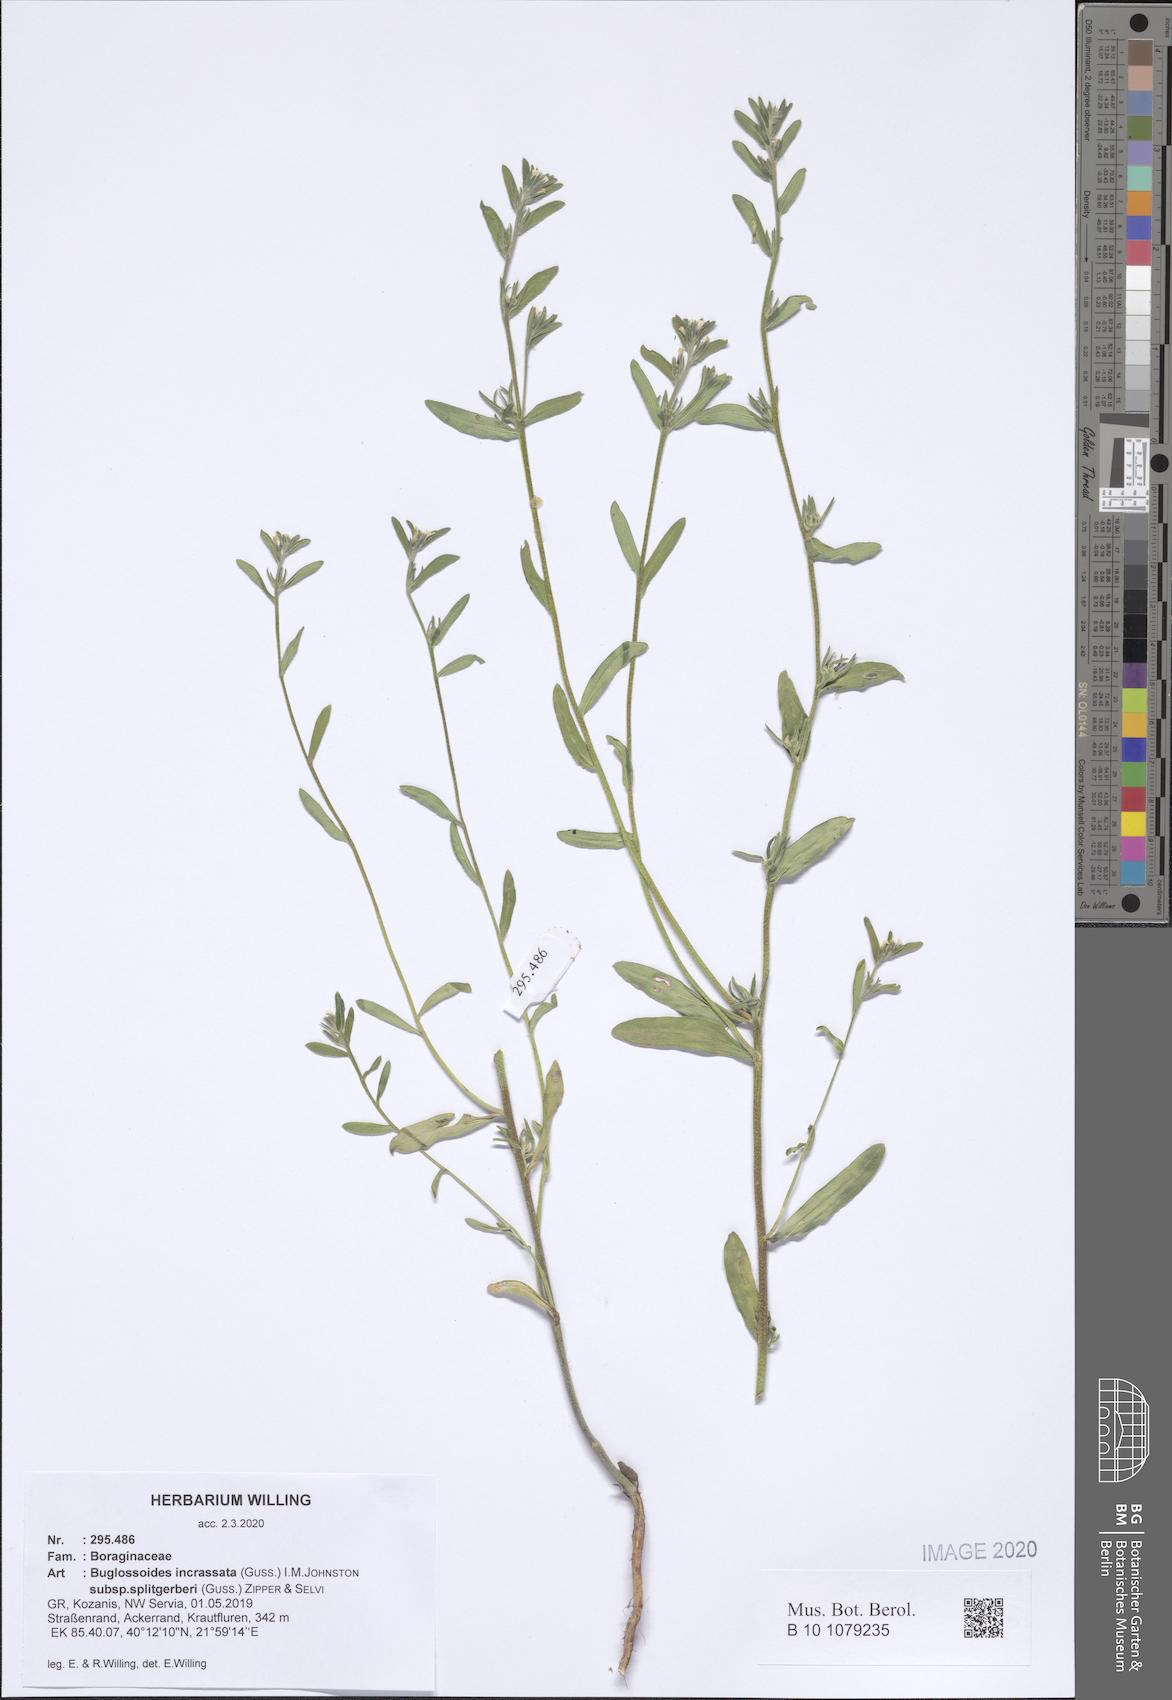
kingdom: Plantae
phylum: Tracheophyta
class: Magnoliopsida
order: Boraginales
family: Boraginaceae
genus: Buglossoides
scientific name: Buglossoides incrassata
